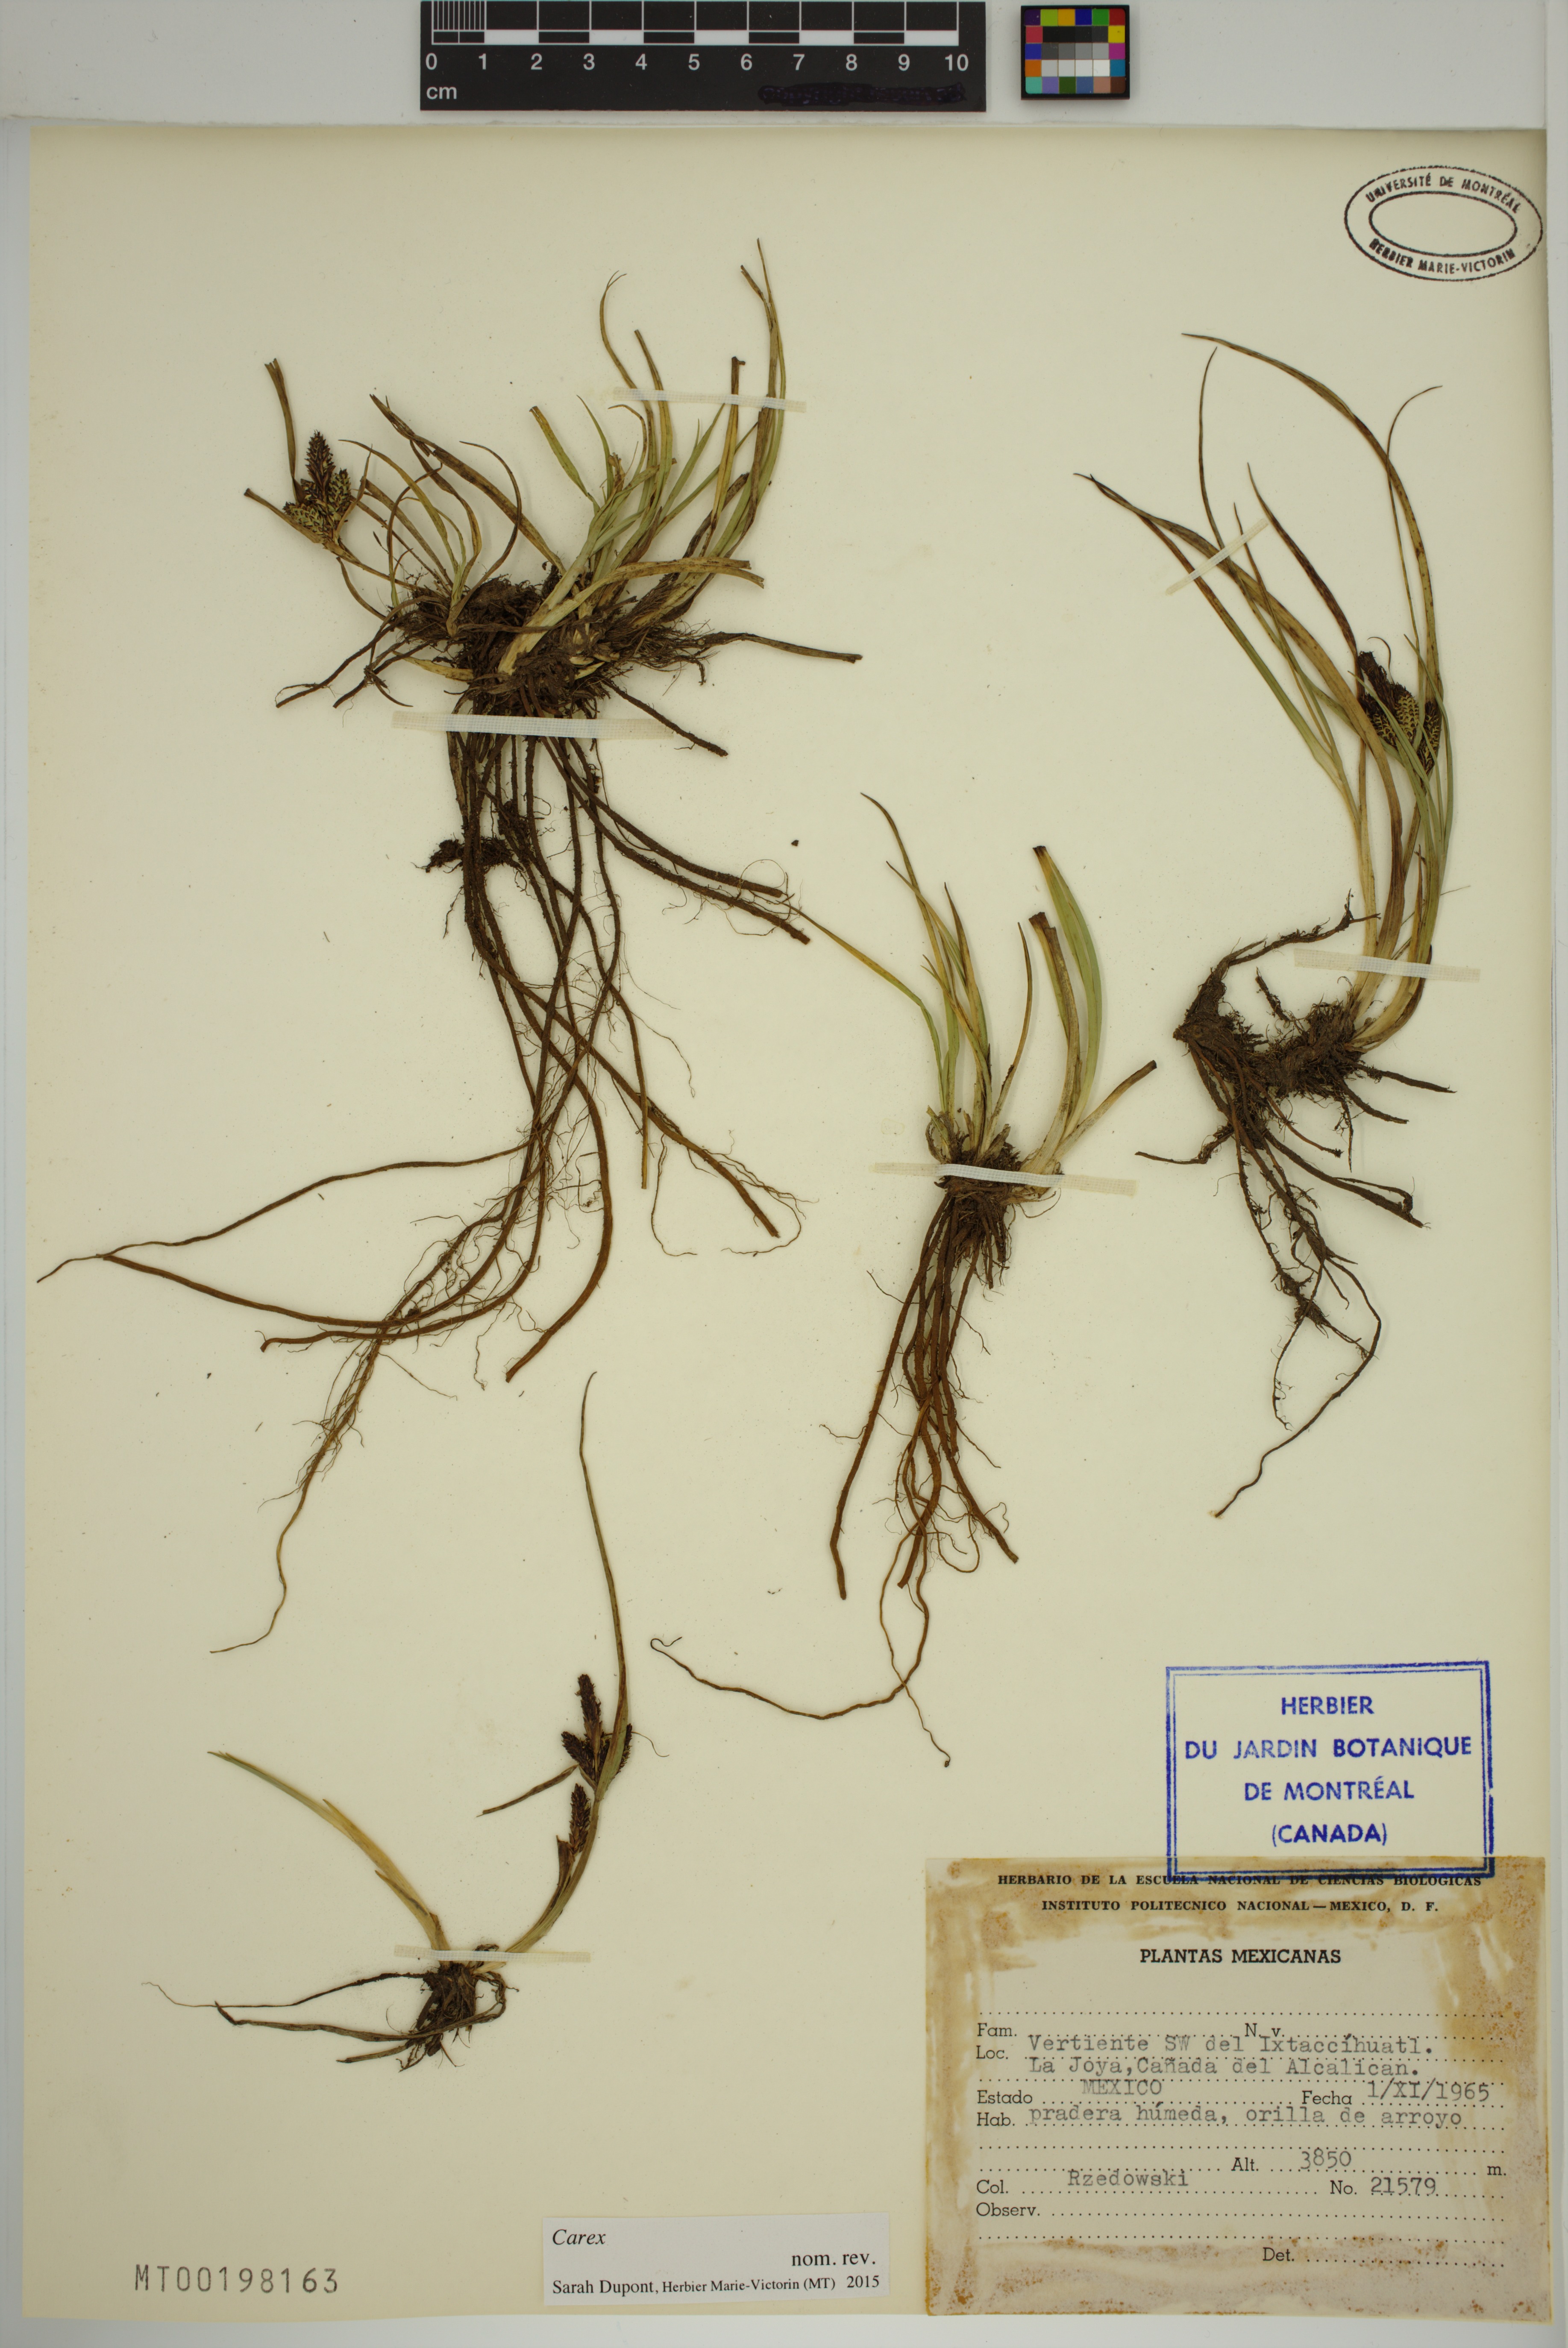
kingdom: Plantae
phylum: Tracheophyta
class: Liliopsida
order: Poales
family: Cyperaceae
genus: Carex
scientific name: Carex
